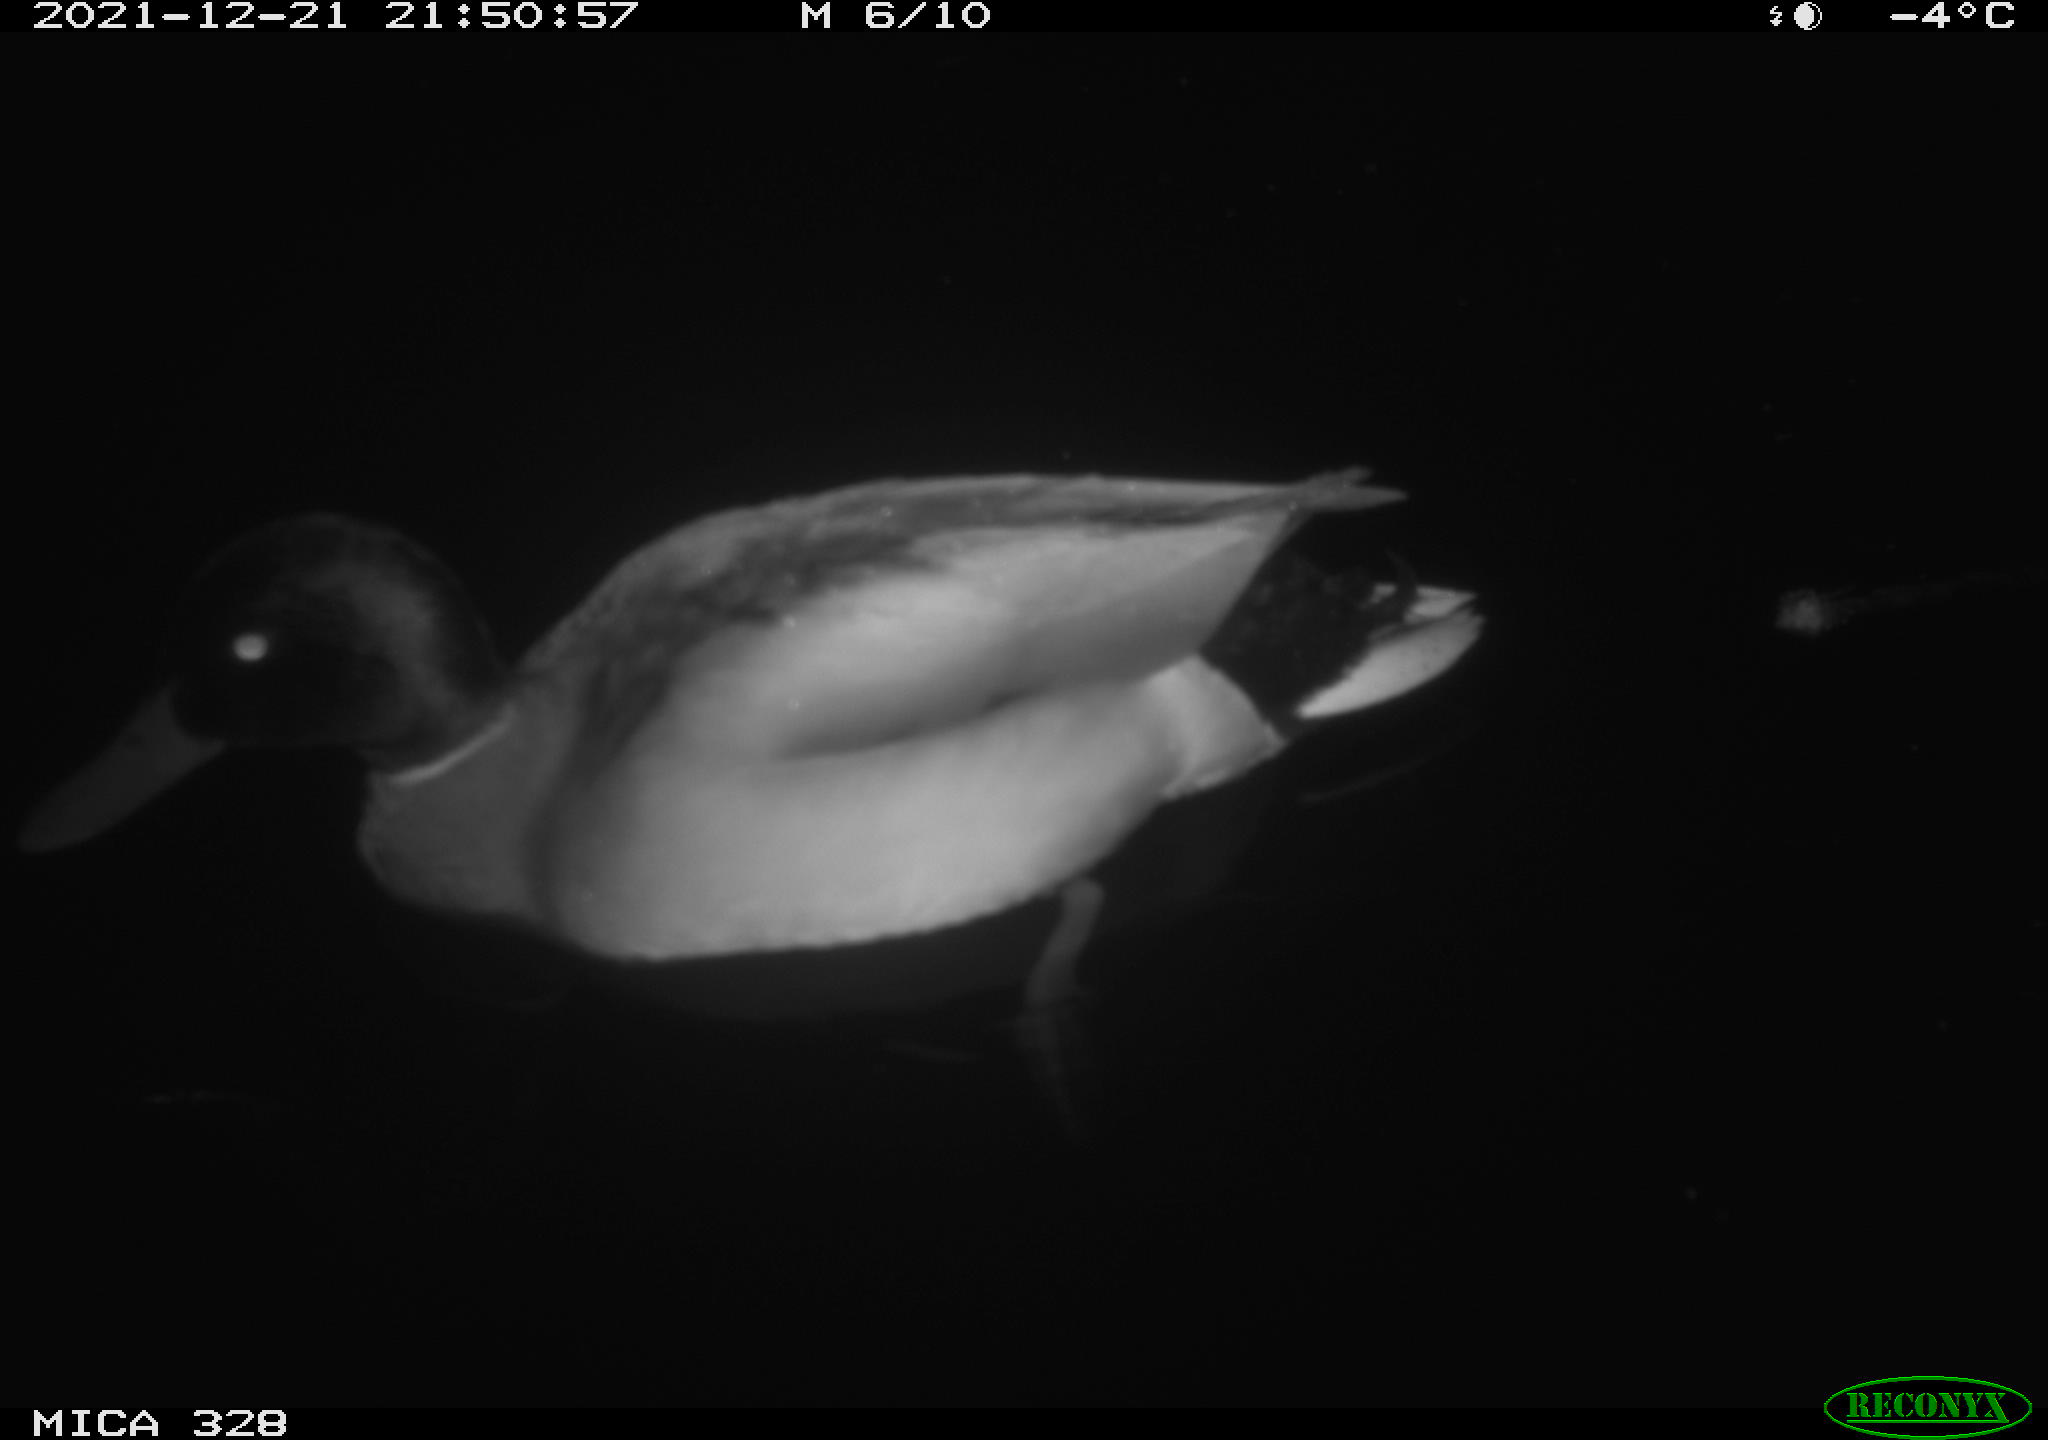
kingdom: Animalia
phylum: Chordata
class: Aves
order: Anseriformes
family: Anatidae
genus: Anas
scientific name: Anas platyrhynchos
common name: Mallard
